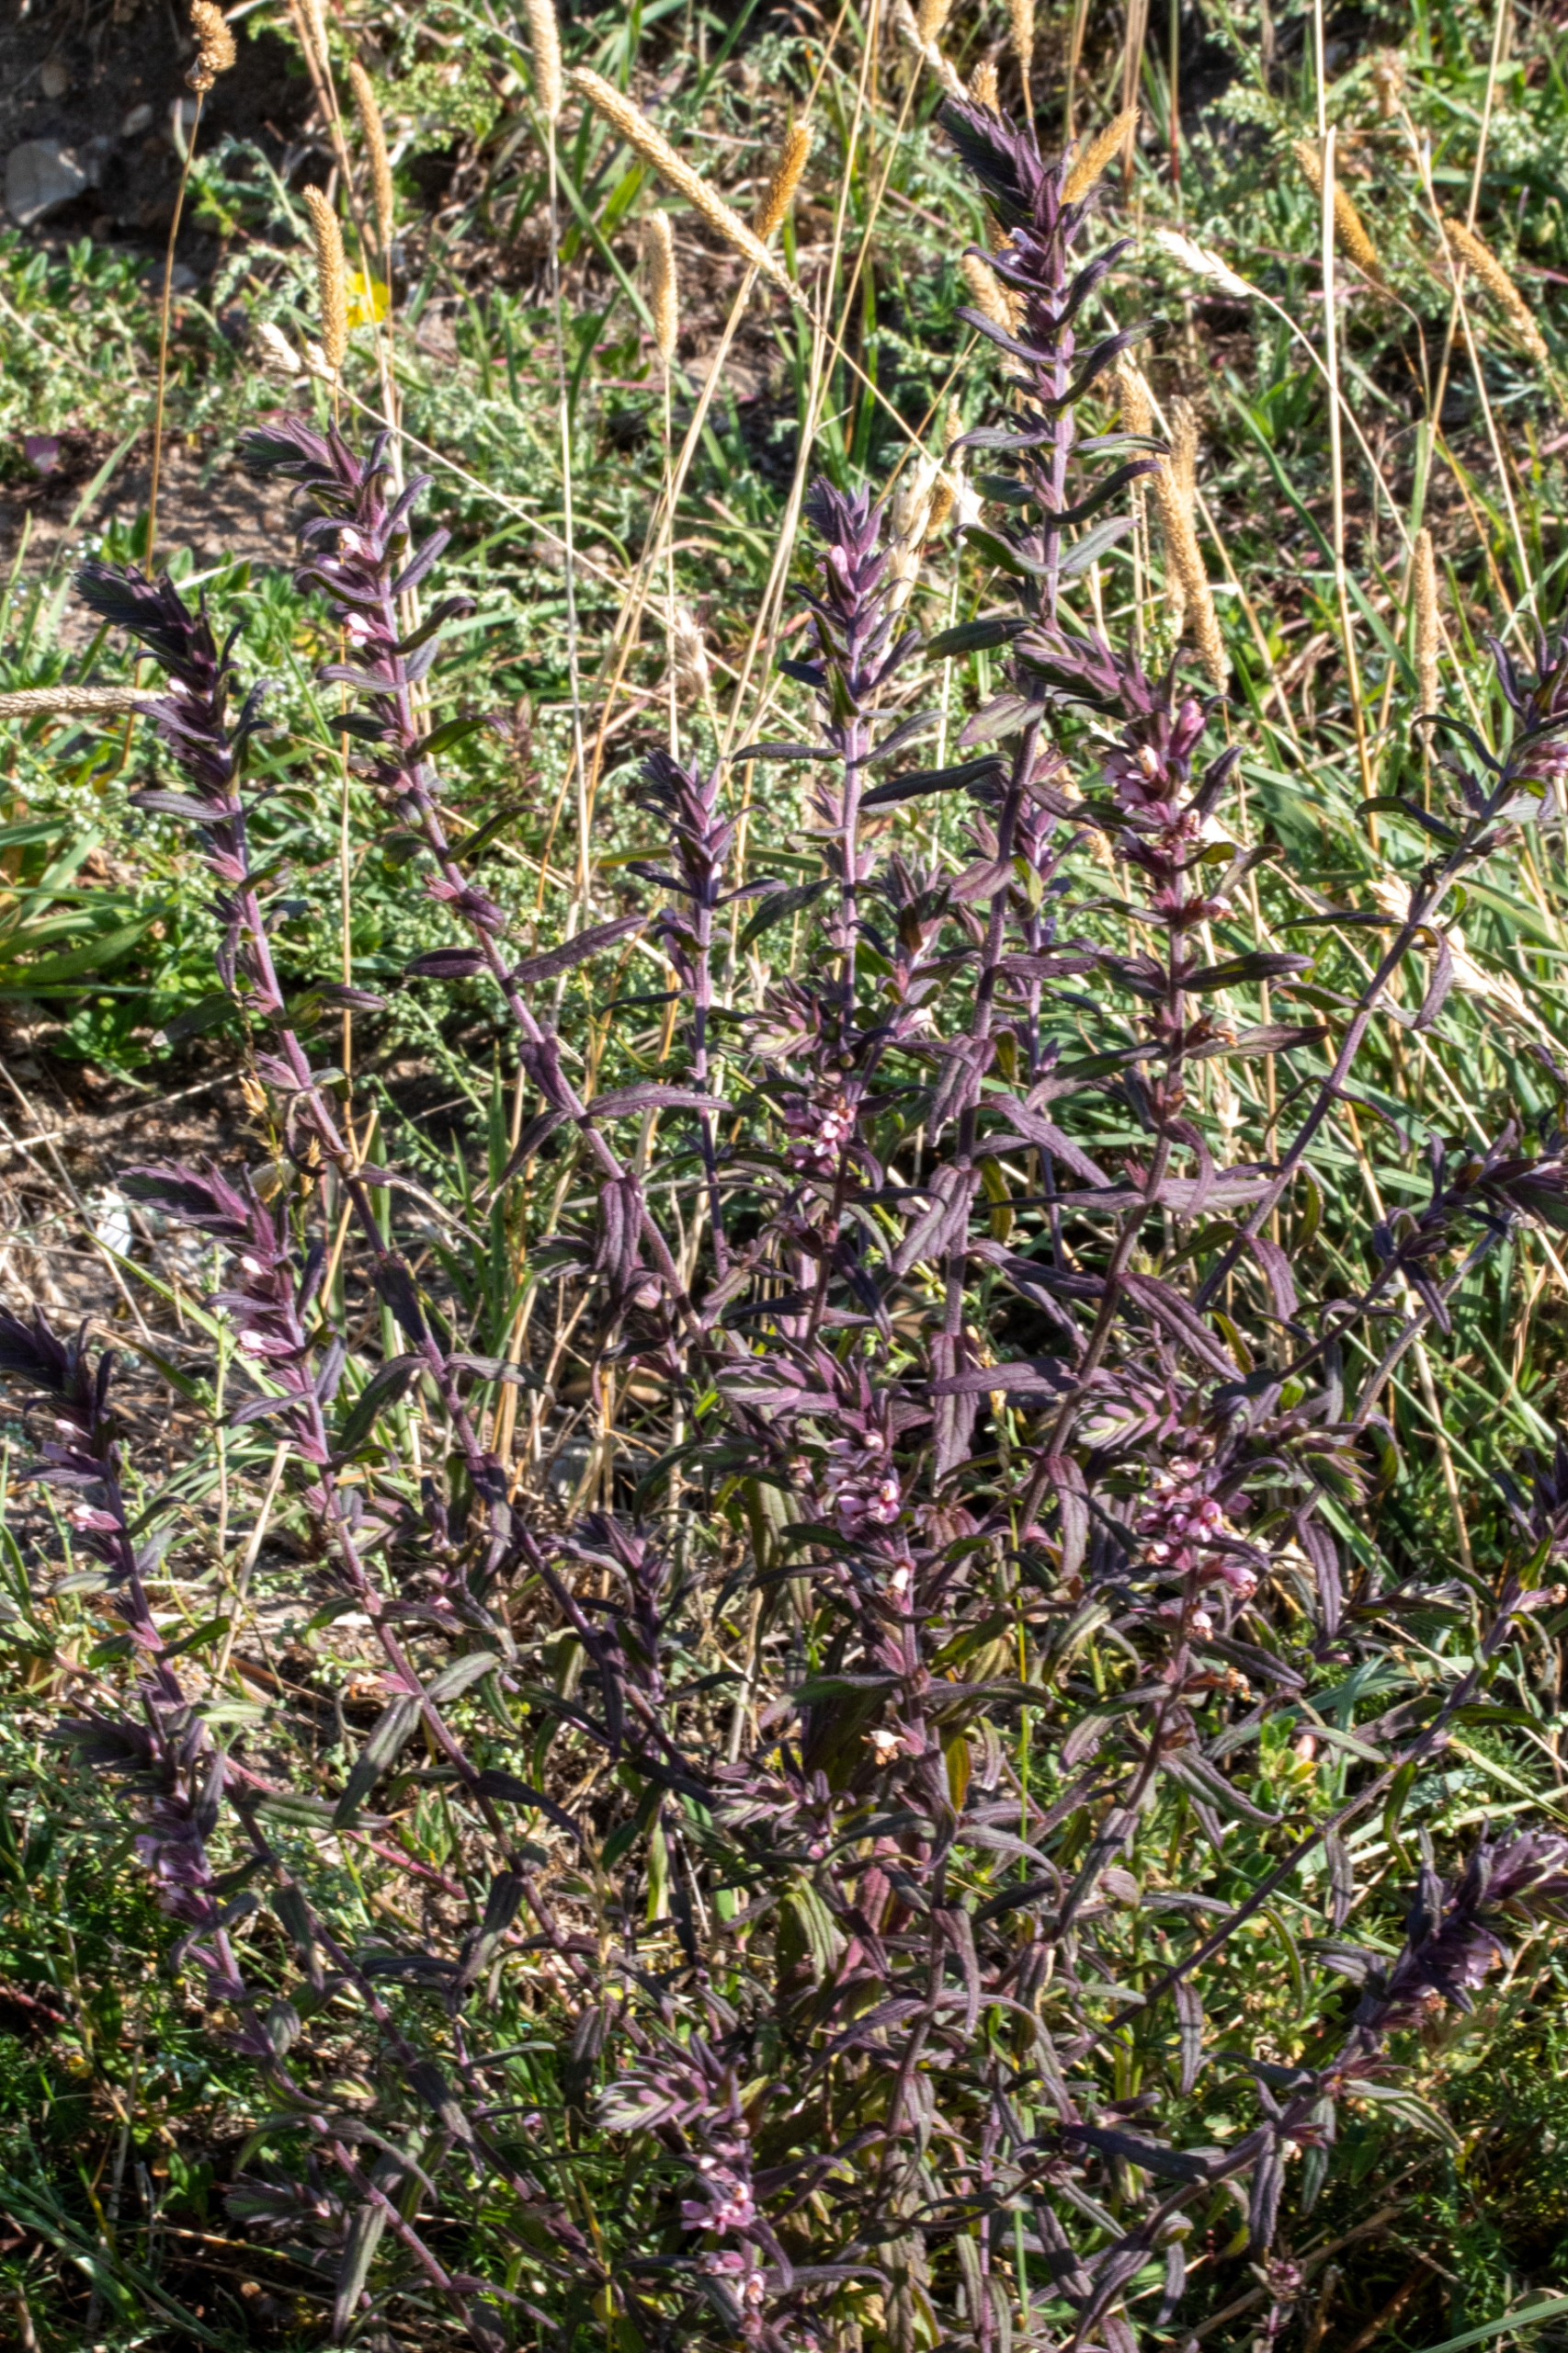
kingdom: Plantae
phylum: Tracheophyta
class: Magnoliopsida
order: Lamiales
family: Orobanchaceae
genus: Odontites
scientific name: Odontites vulgaris
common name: Høst-rødtop
